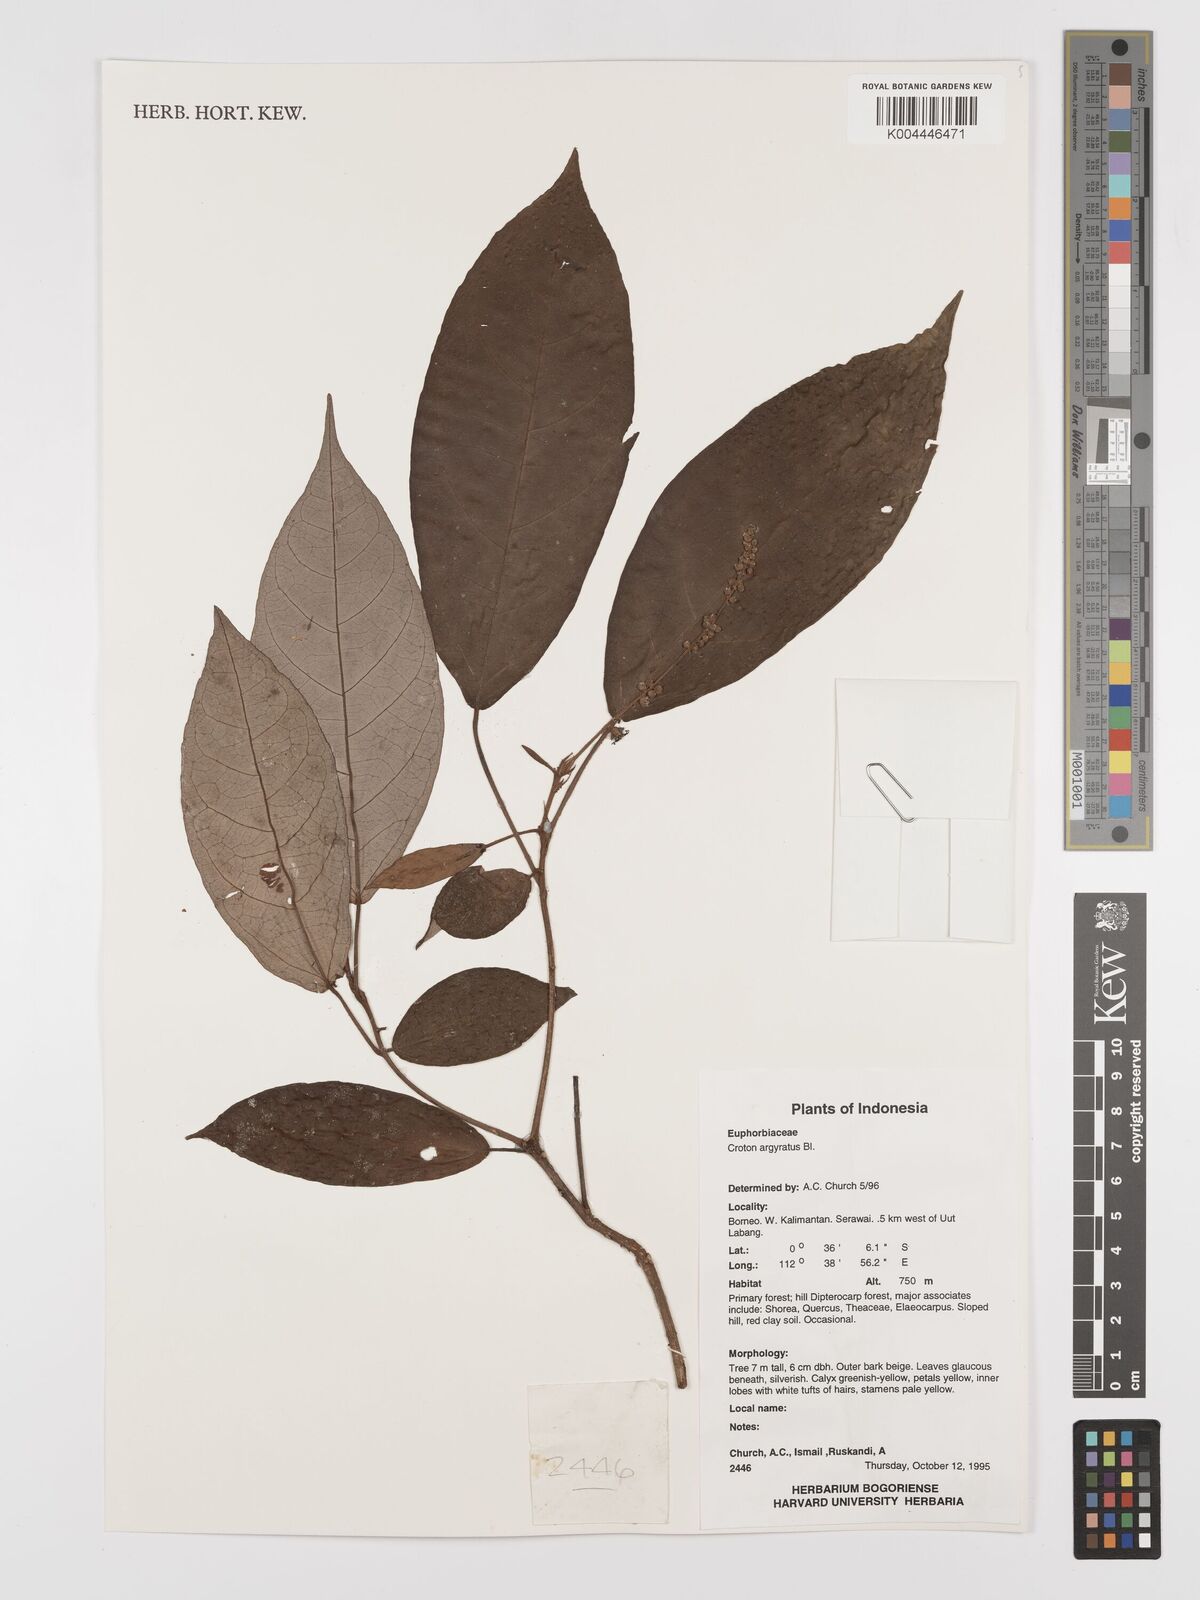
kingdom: Plantae
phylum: Tracheophyta
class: Magnoliopsida
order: Malpighiales
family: Euphorbiaceae
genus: Croton
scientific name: Croton argyratus
